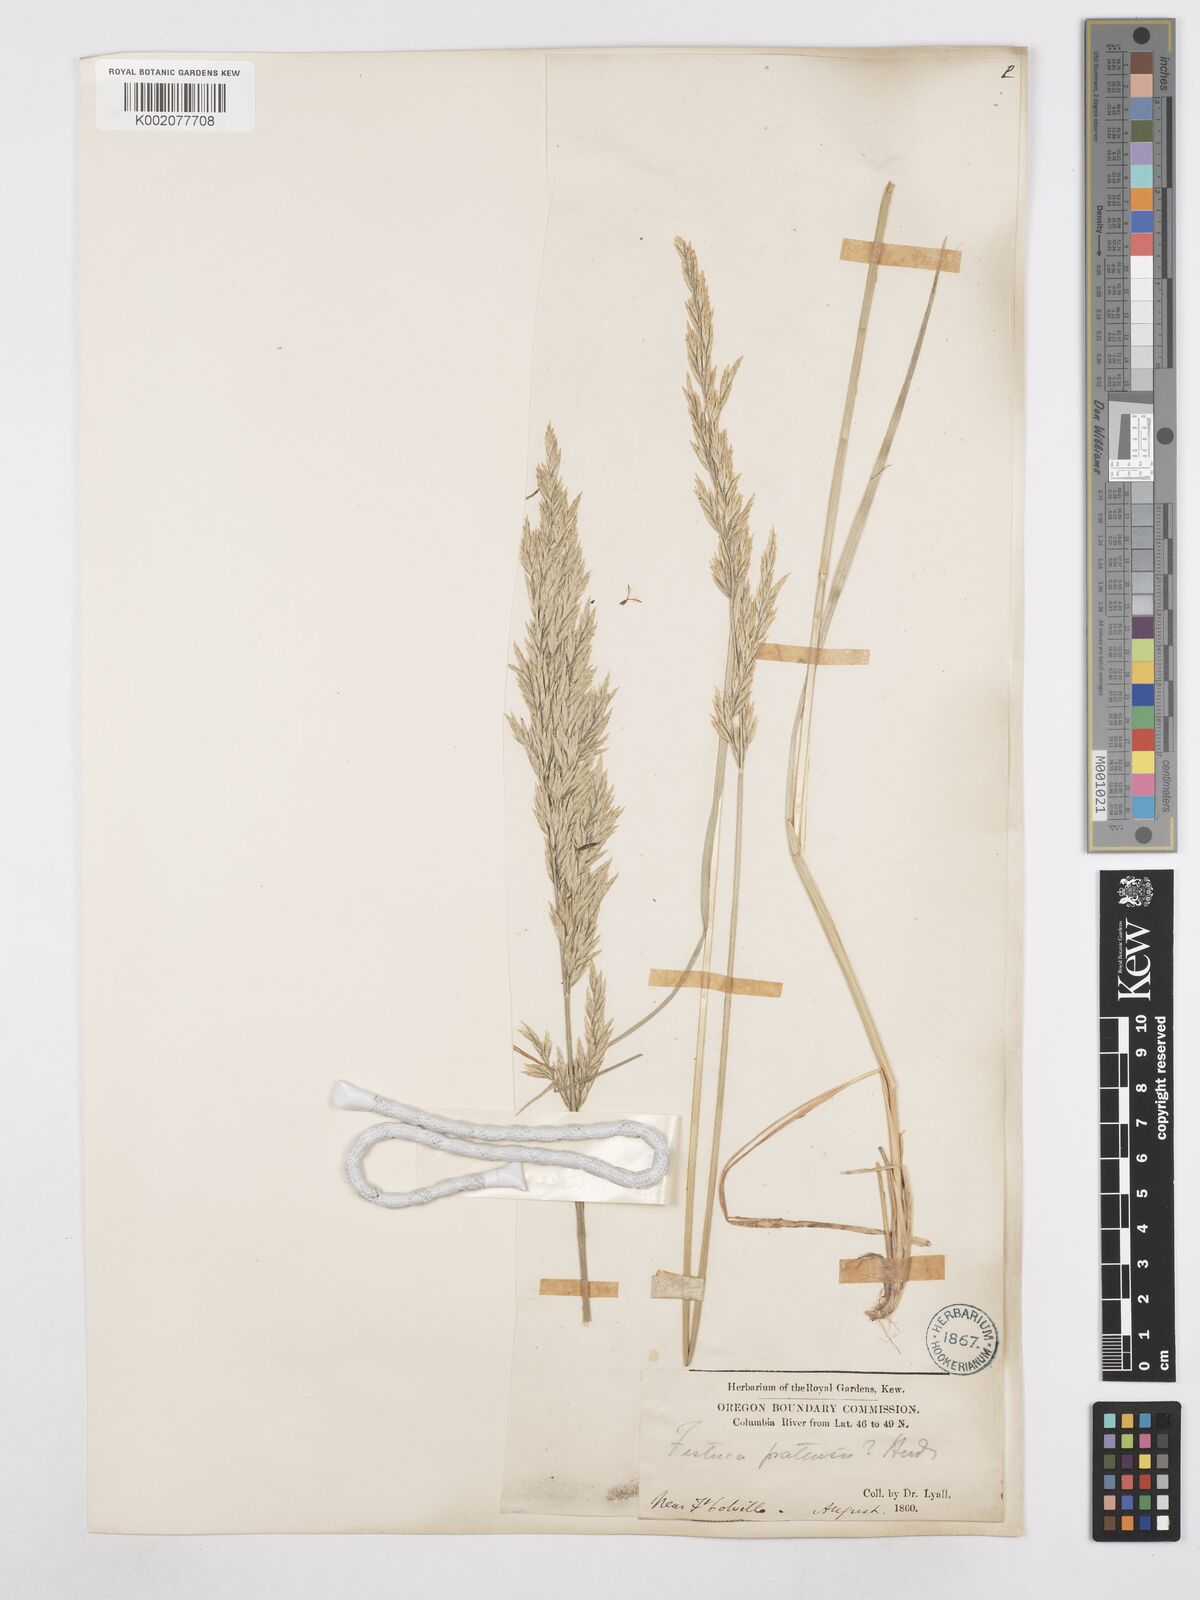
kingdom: Plantae
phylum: Tracheophyta
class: Liliopsida
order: Poales
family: Poaceae
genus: Poa
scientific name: Poa secunda
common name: Sandberg bluegrass
